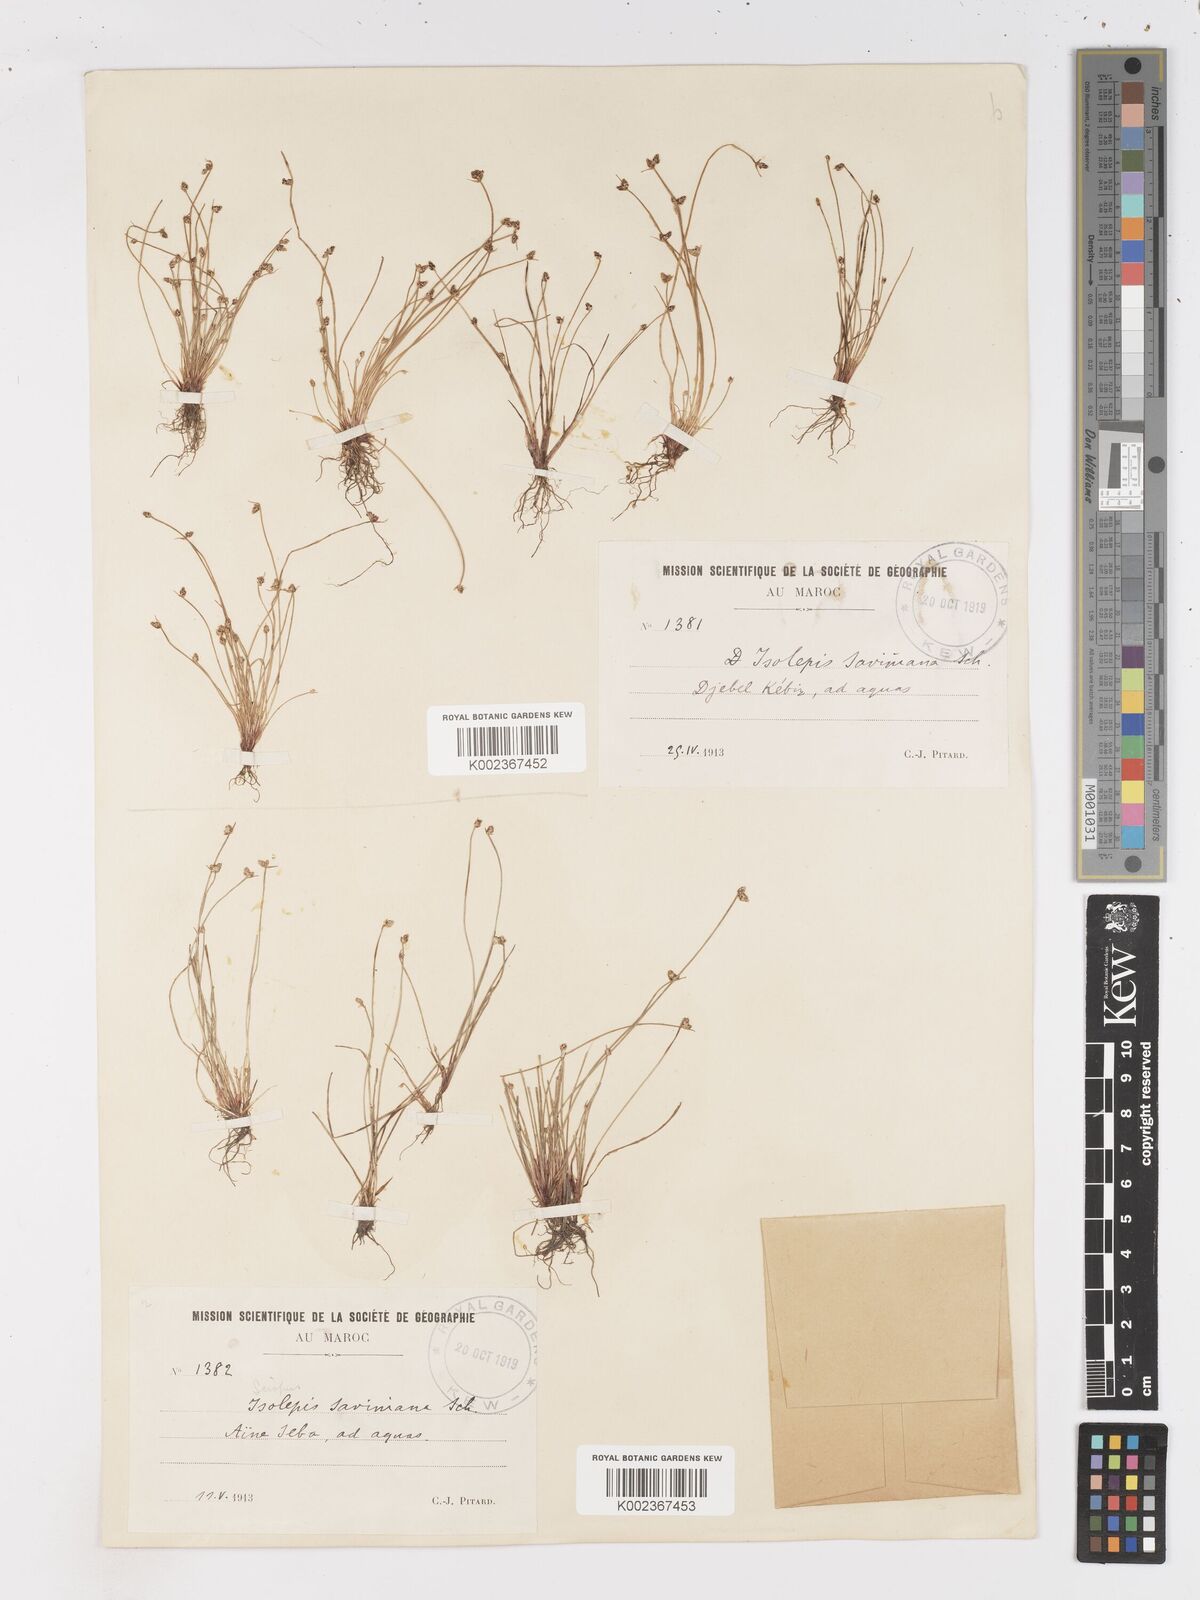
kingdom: Plantae
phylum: Tracheophyta
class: Liliopsida
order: Poales
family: Cyperaceae
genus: Isolepis
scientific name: Isolepis cernua
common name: Slender club-rush
